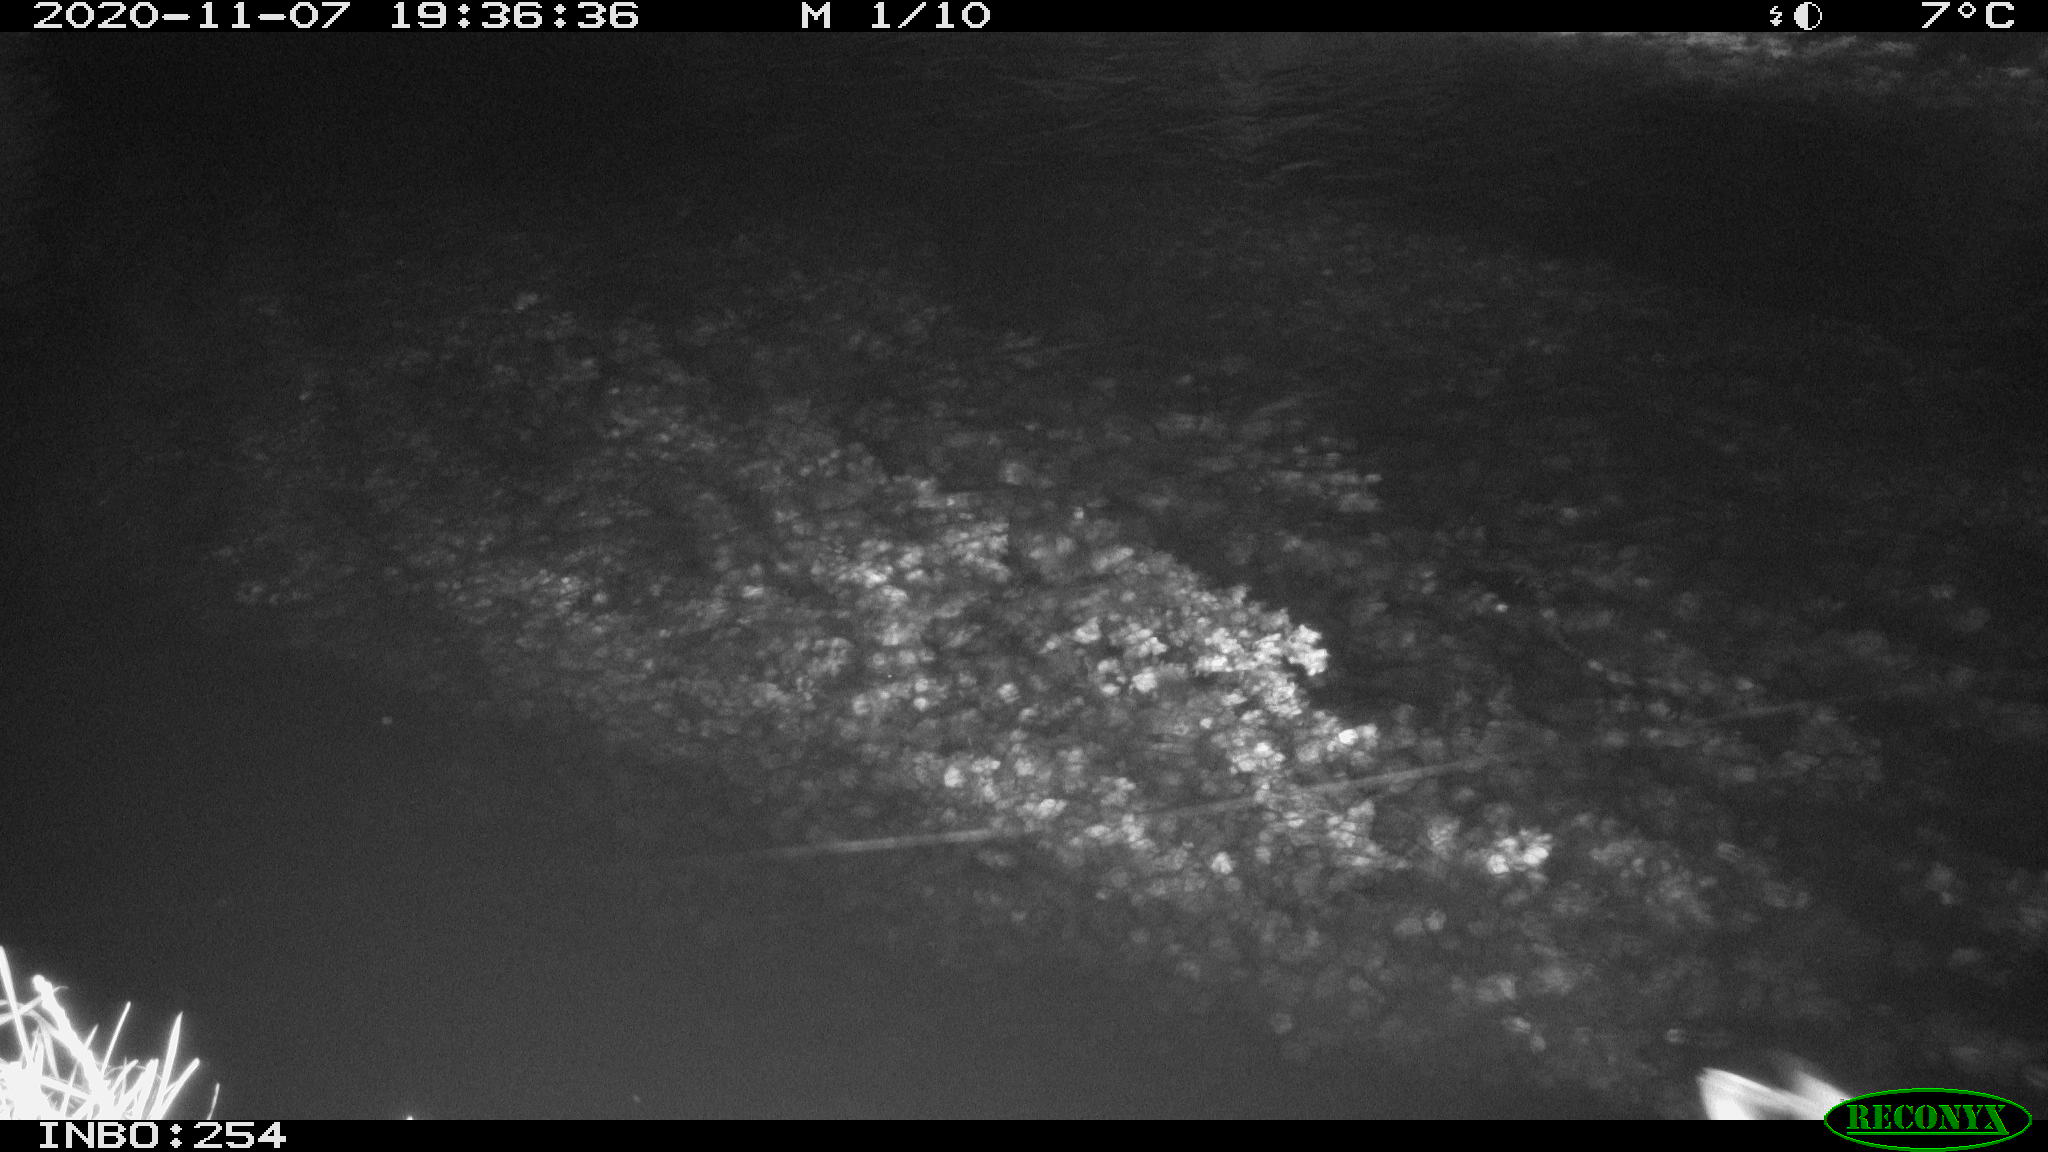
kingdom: Animalia
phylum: Chordata
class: Aves
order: Anseriformes
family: Anatidae
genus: Anas
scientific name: Anas platyrhynchos
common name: Mallard
